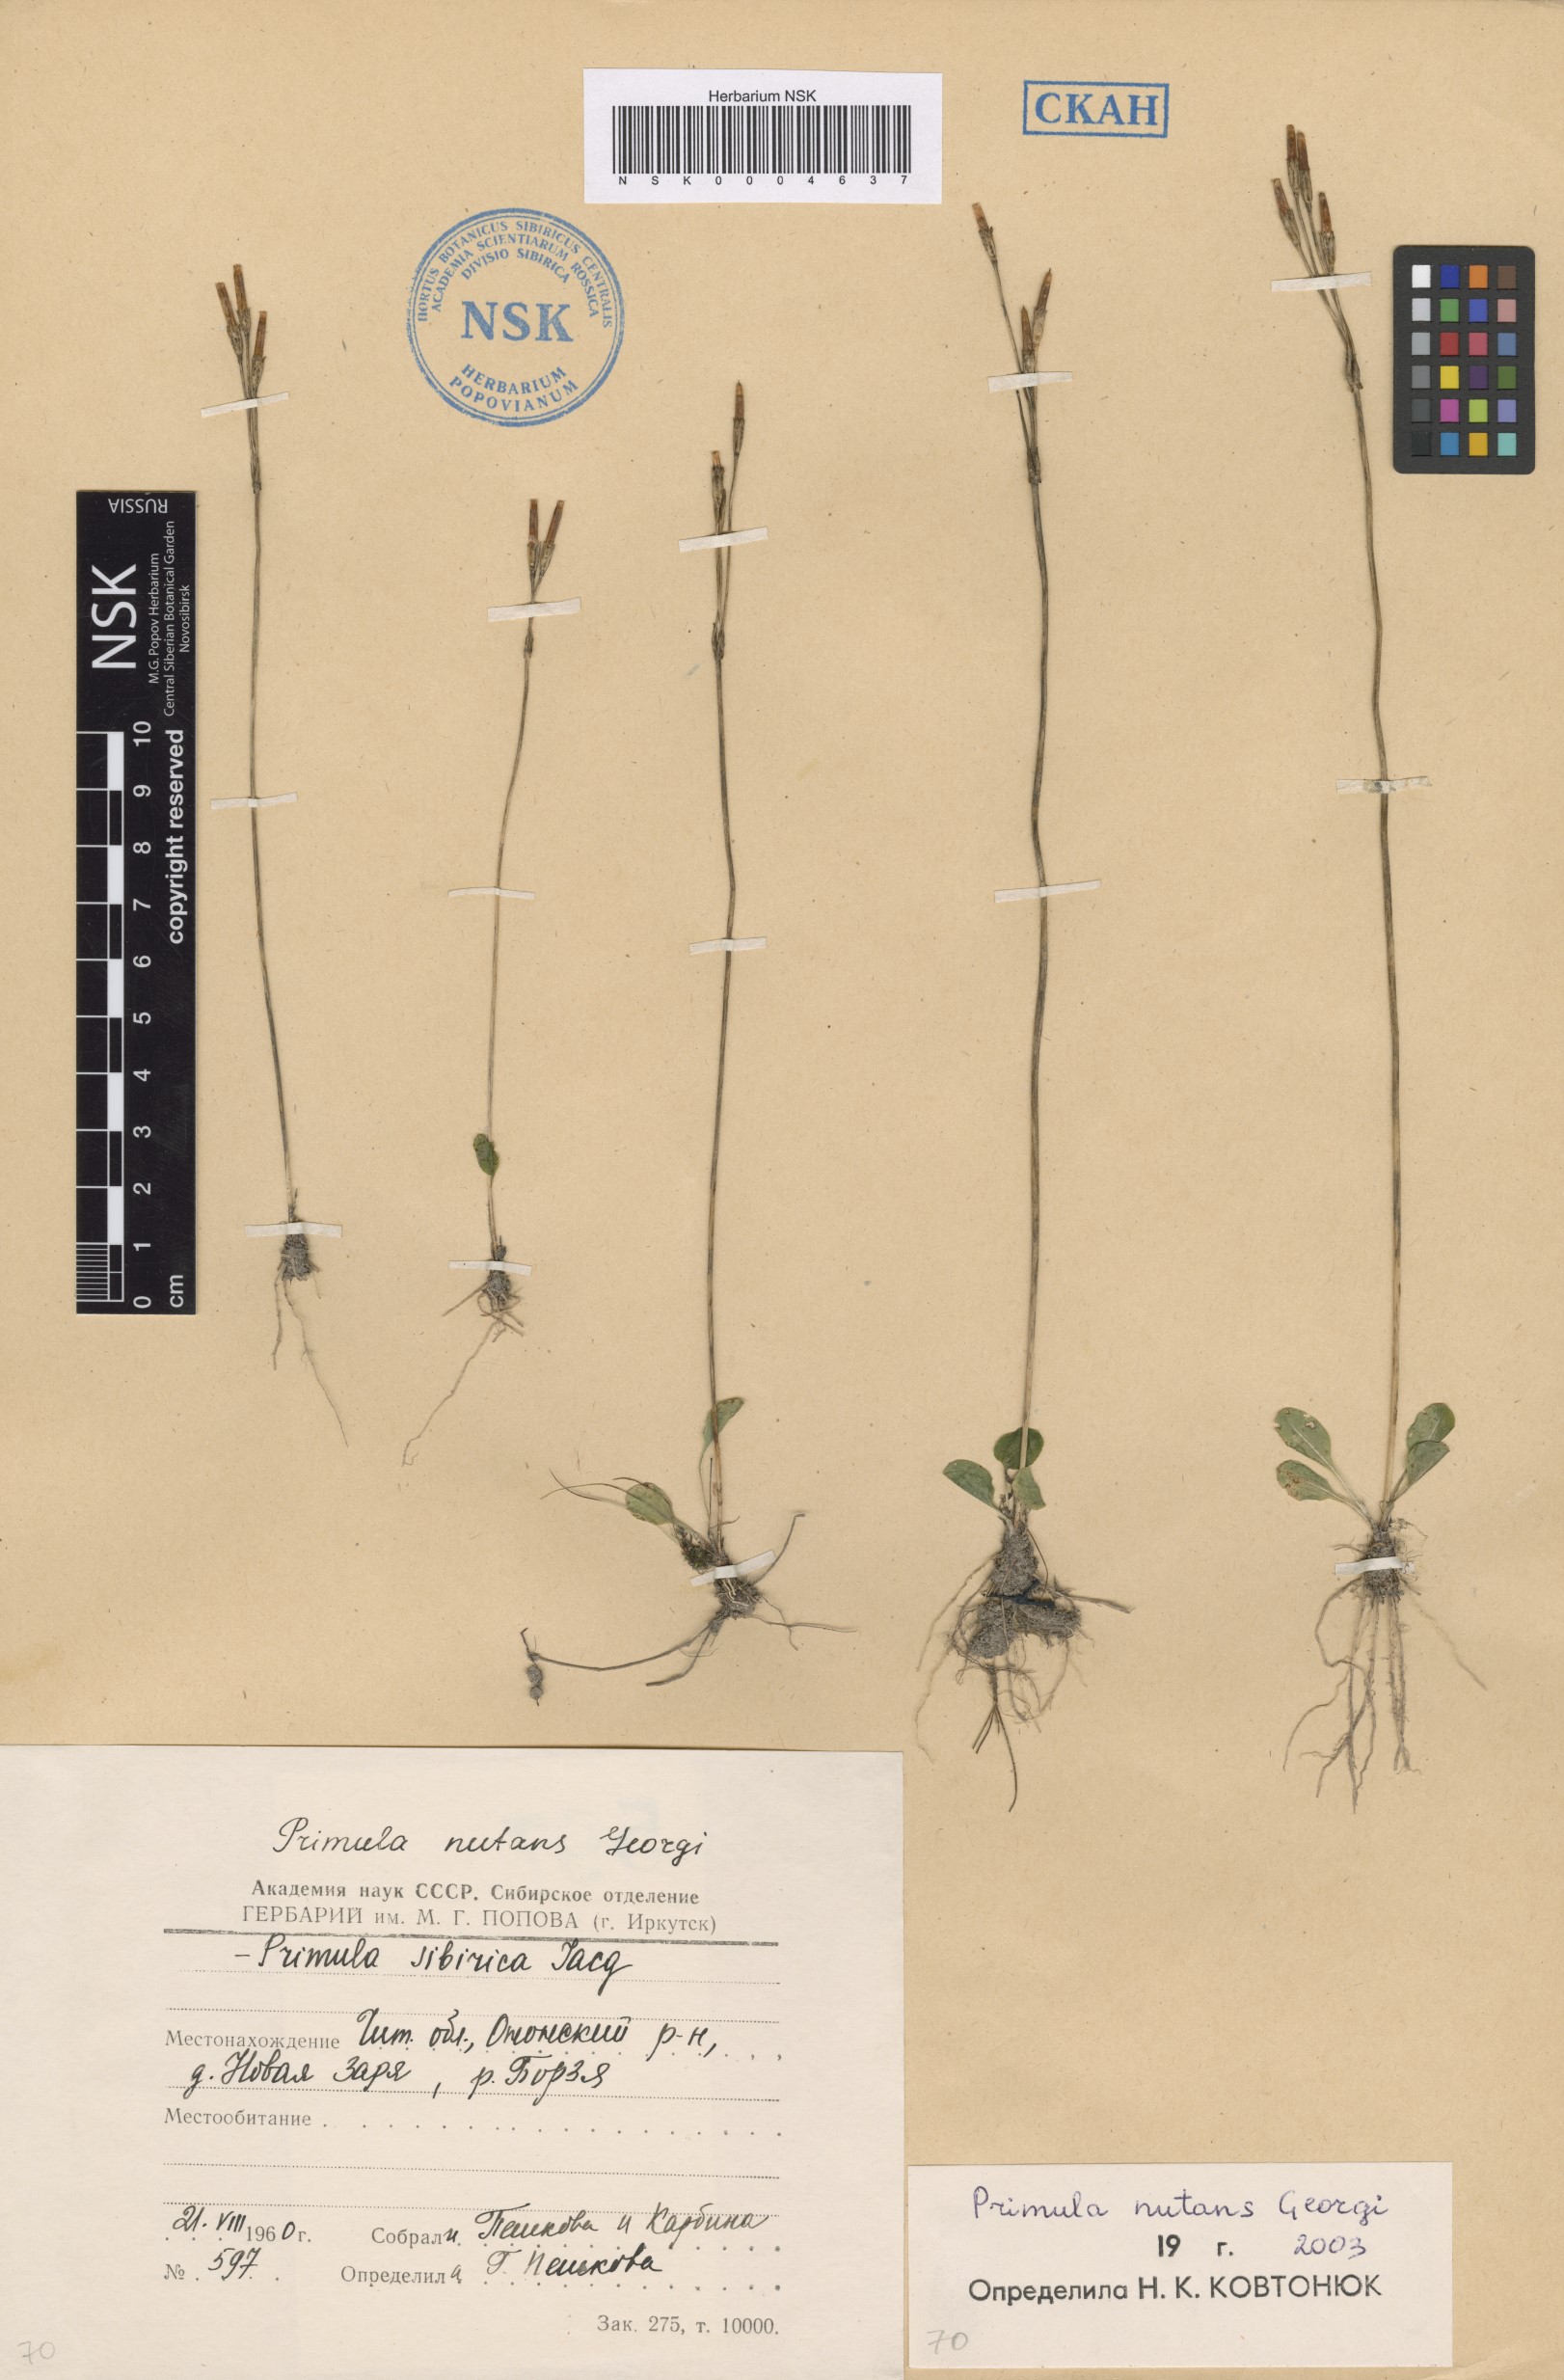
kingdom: Plantae
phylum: Tracheophyta
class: Magnoliopsida
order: Ericales
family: Primulaceae
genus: Primula
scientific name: Primula nutans
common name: Siberian primrose
